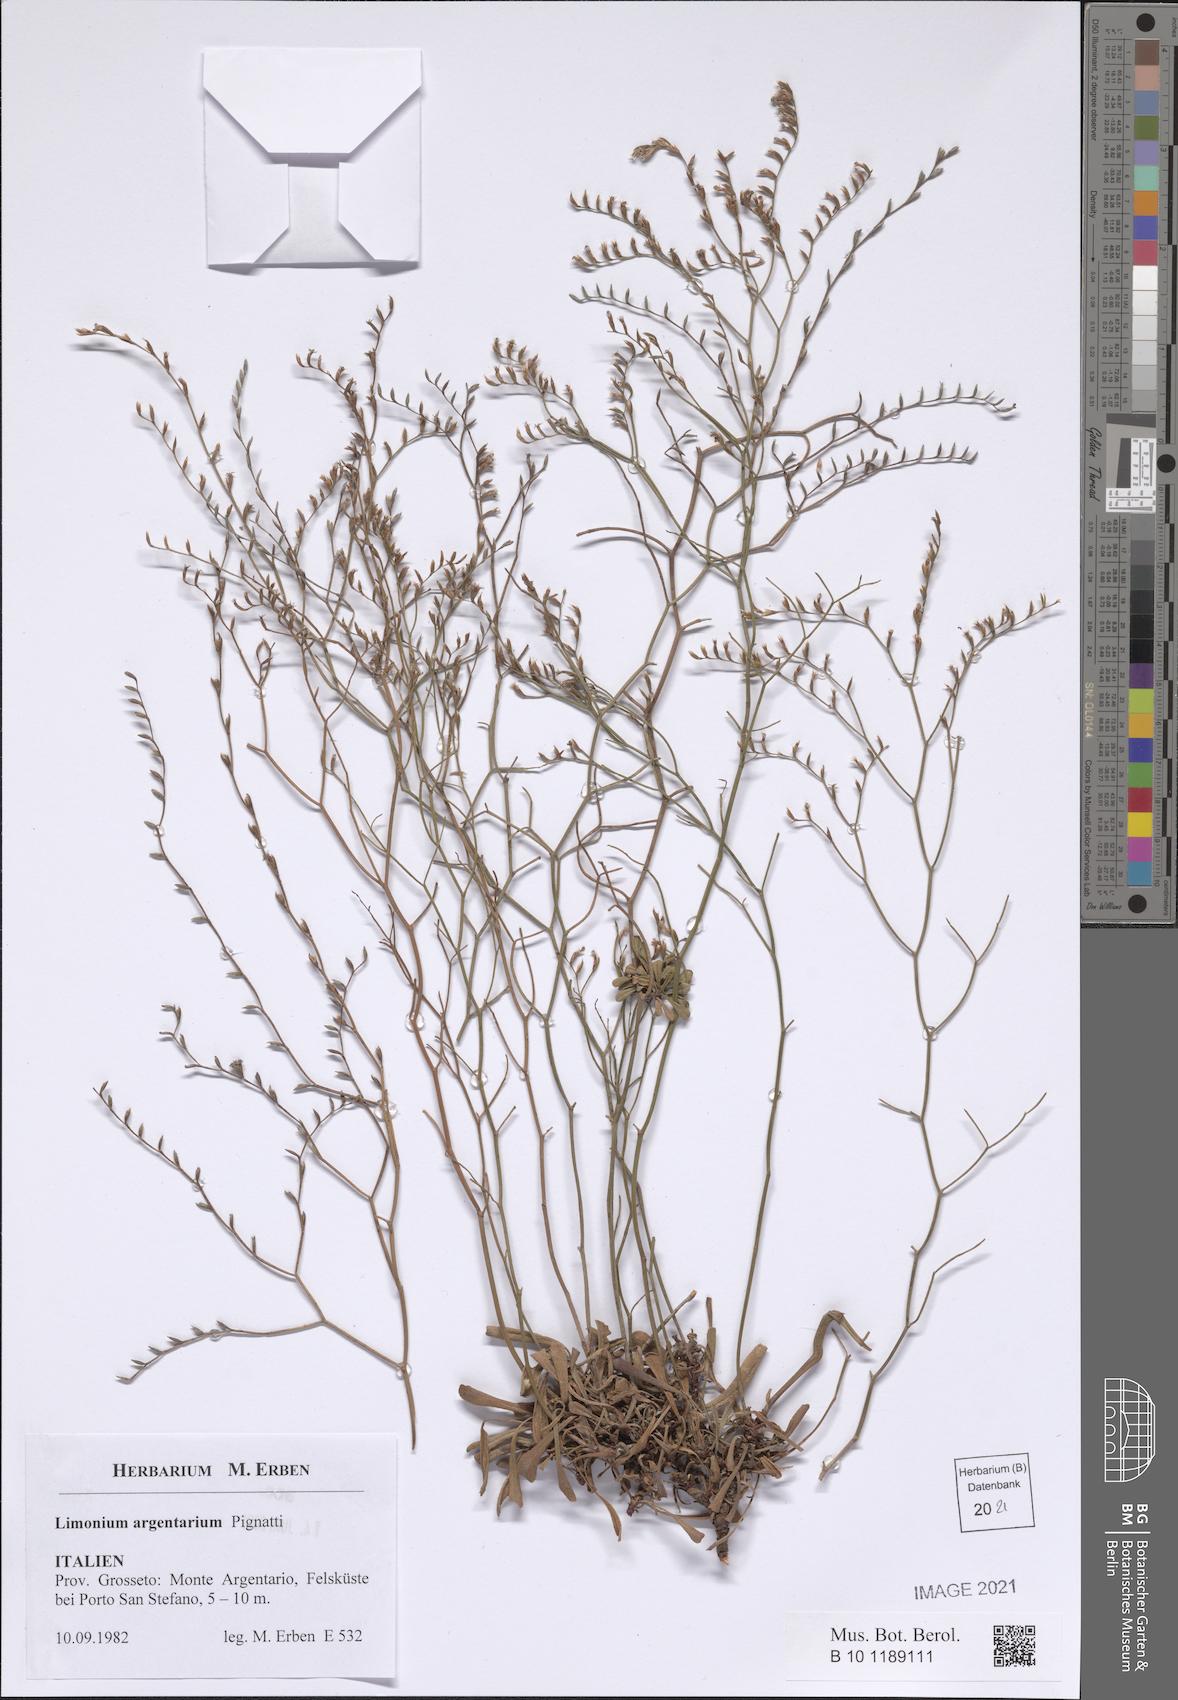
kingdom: Plantae
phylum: Tracheophyta
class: Magnoliopsida
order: Caryophyllales
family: Plumbaginaceae
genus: Limonium
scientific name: Limonium multiforme
